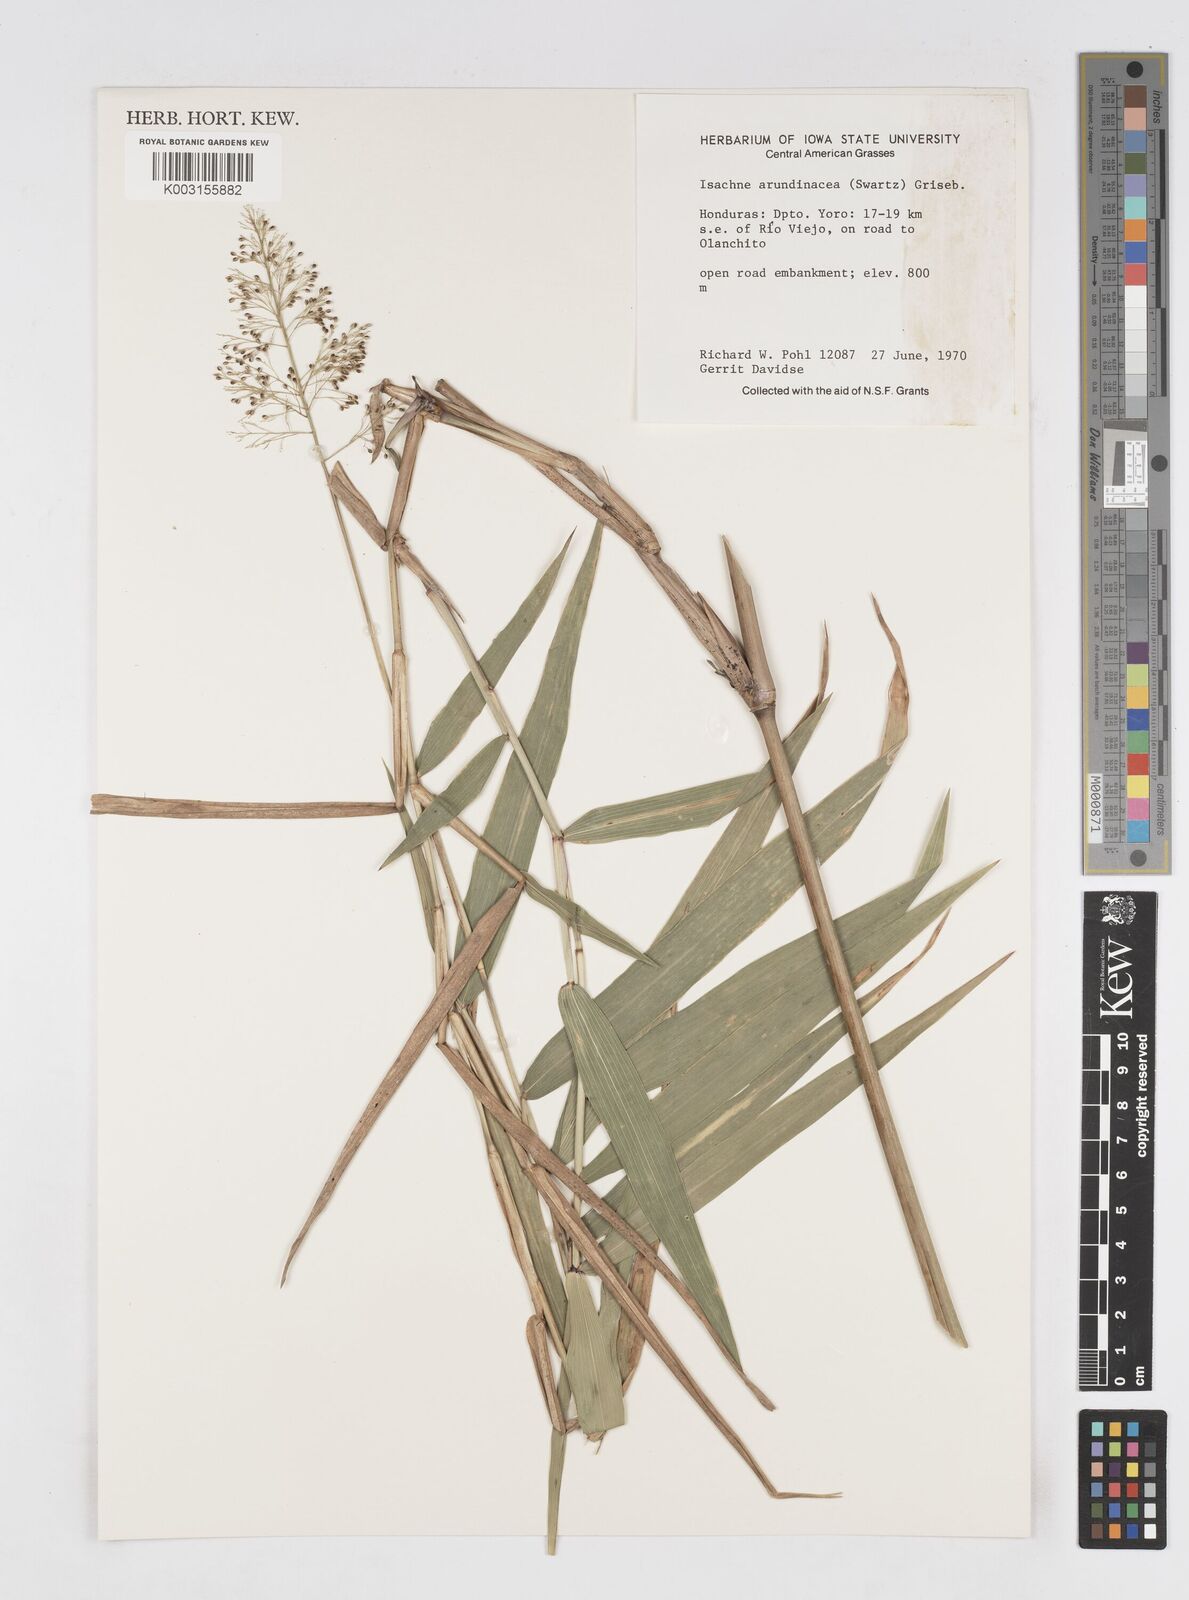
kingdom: Plantae
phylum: Tracheophyta
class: Liliopsida
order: Poales
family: Poaceae
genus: Isachne
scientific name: Isachne arundinacea
